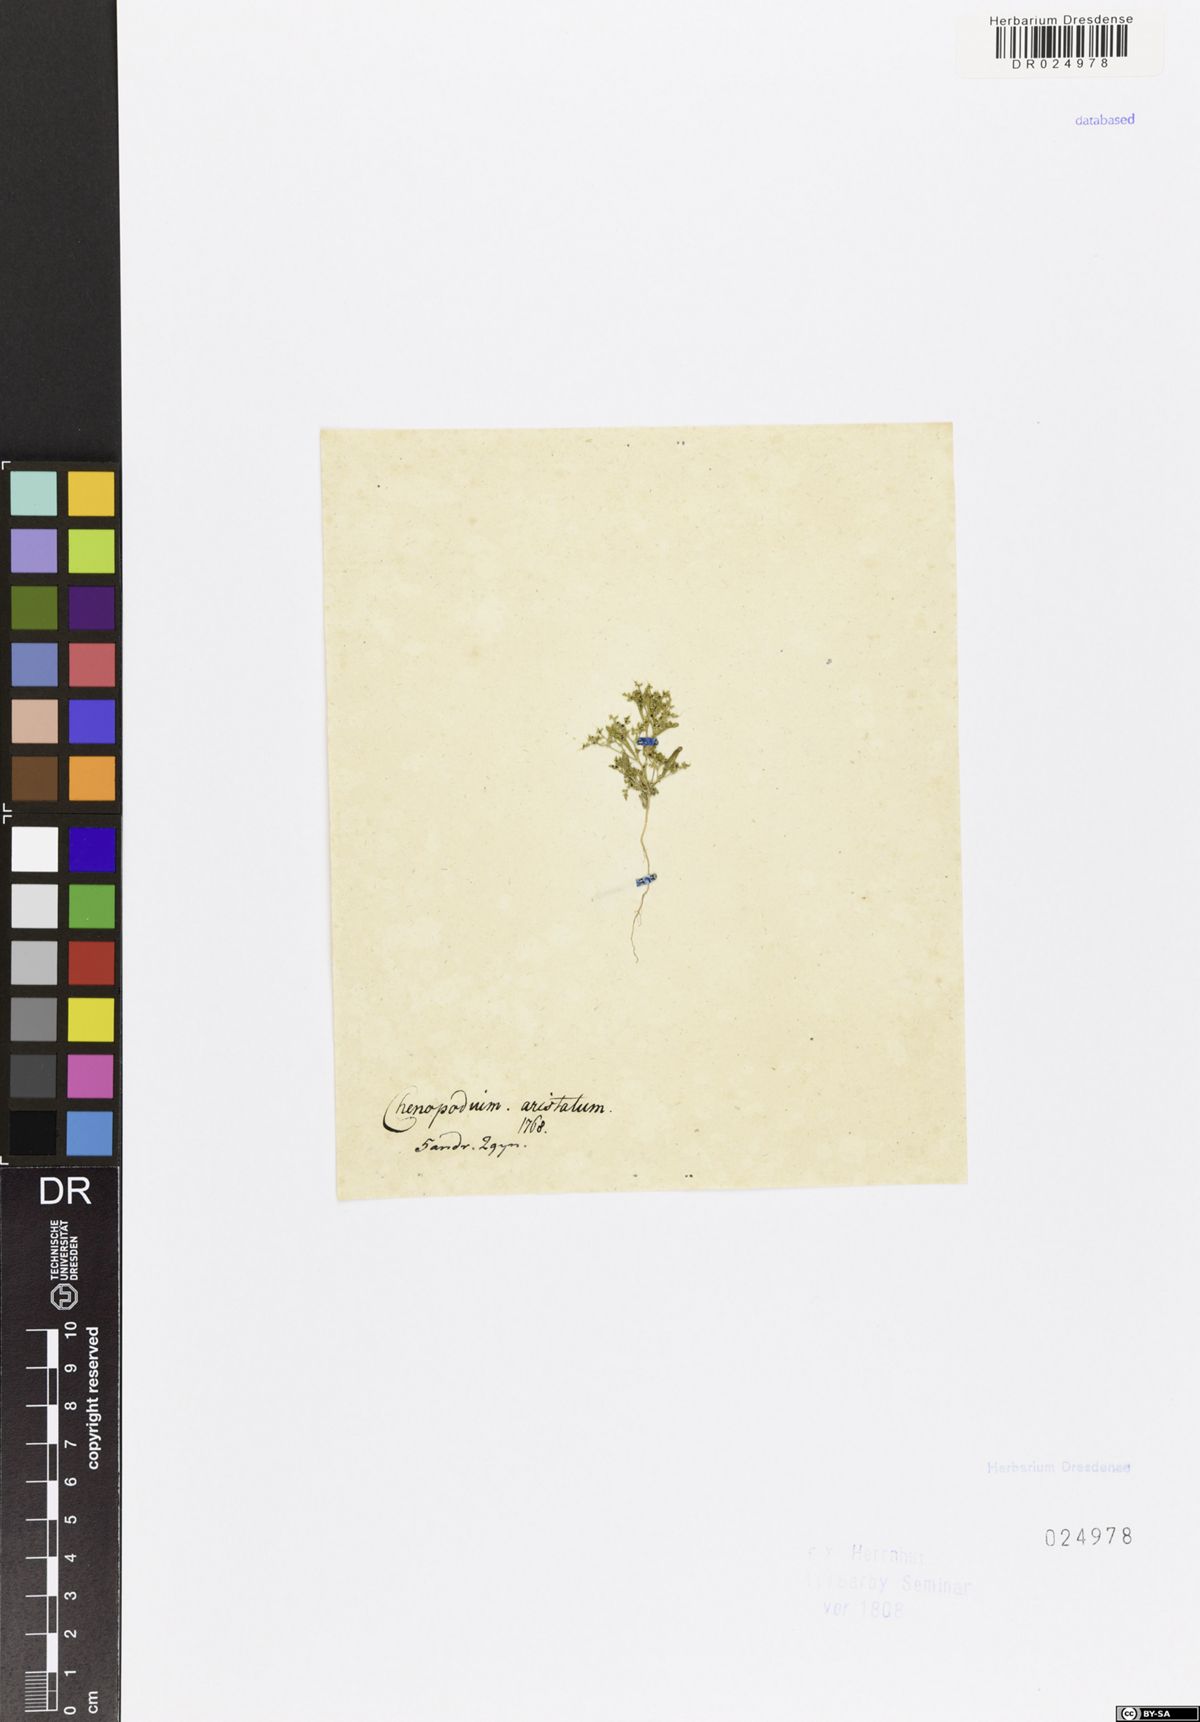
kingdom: Plantae
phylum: Tracheophyta
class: Magnoliopsida
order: Caryophyllales
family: Amaranthaceae
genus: Teloxys
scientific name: Teloxys aristata
